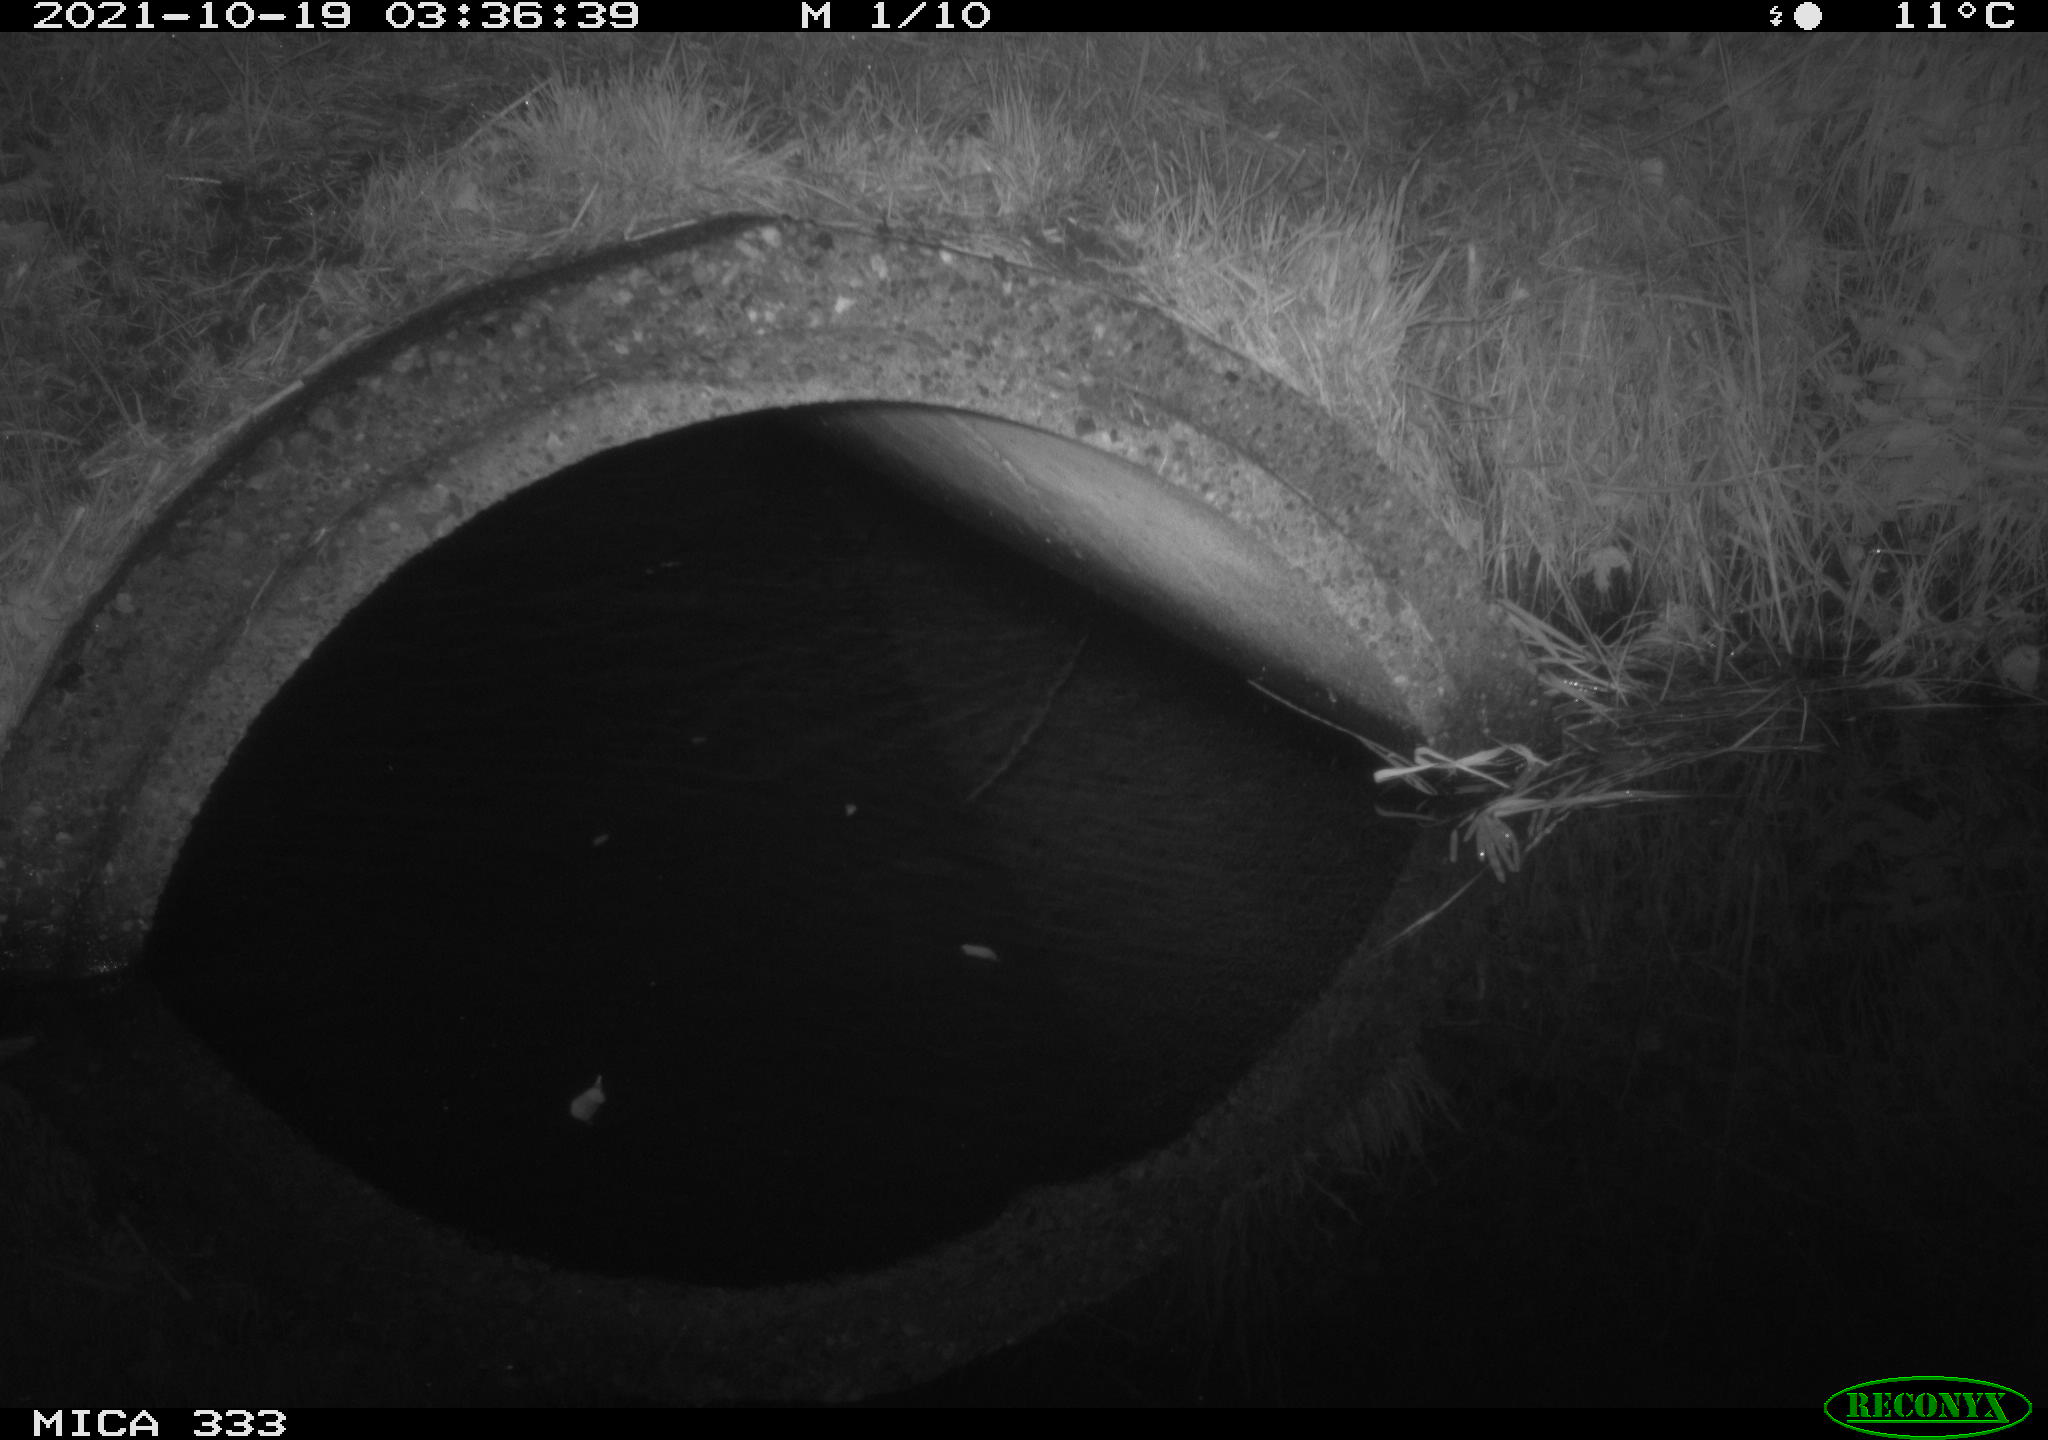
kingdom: Animalia
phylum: Chordata
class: Mammalia
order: Rodentia
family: Muridae
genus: Rattus
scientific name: Rattus norvegicus
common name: Brown rat
